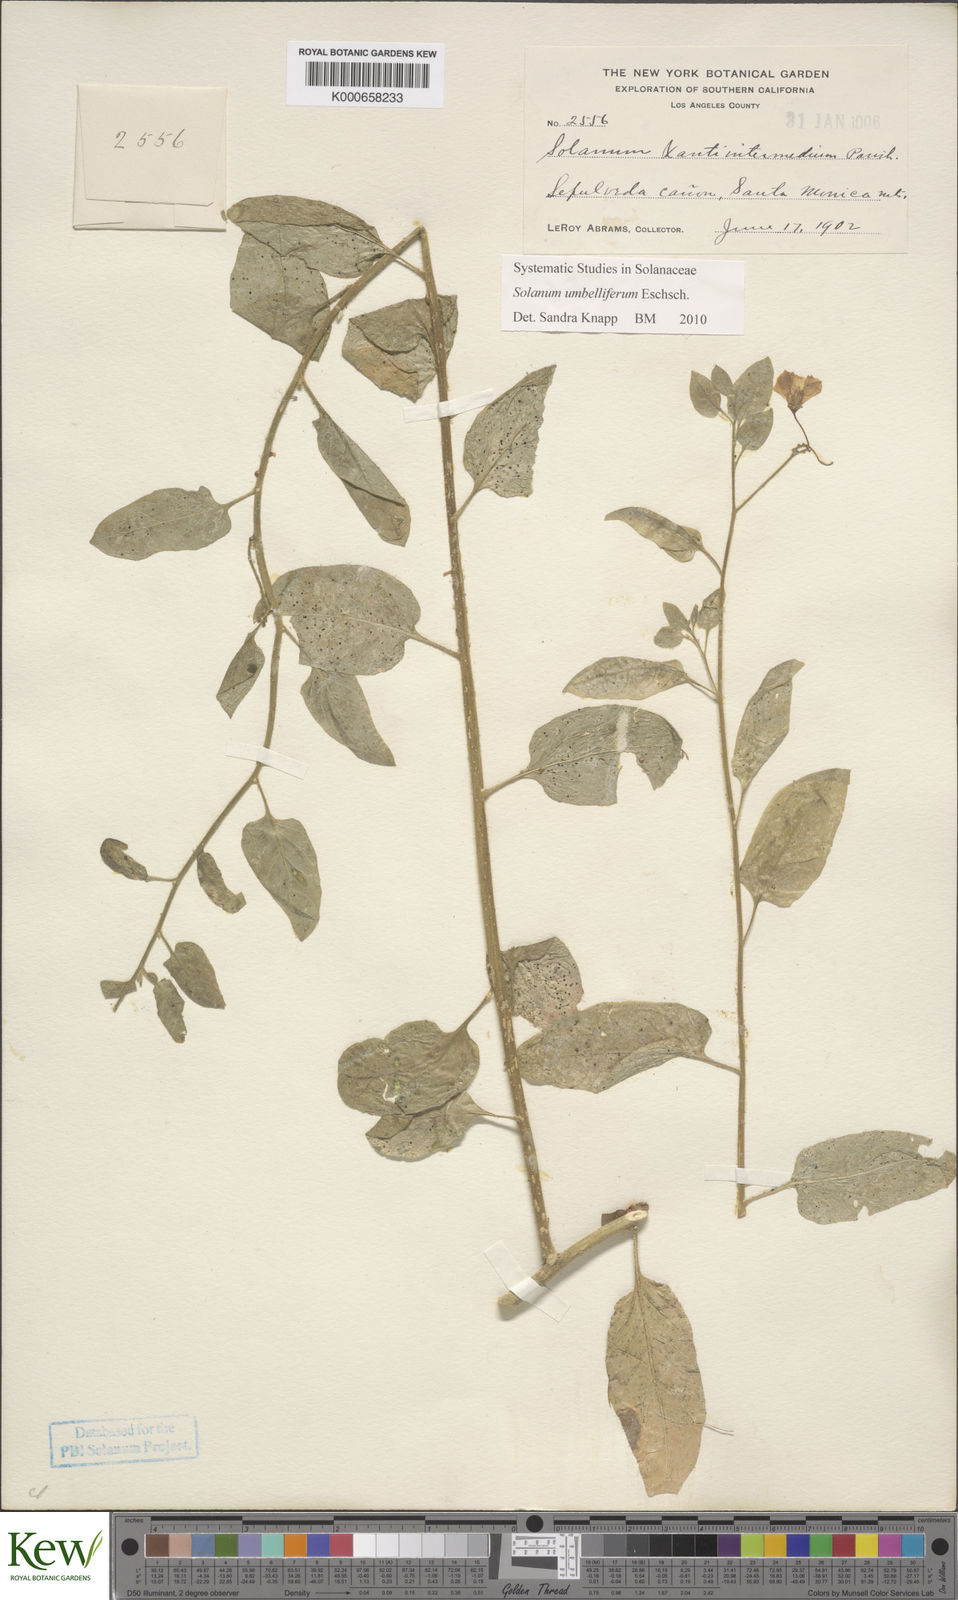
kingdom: Plantae
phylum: Tracheophyta
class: Magnoliopsida
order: Solanales
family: Solanaceae
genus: Solanum
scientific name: Solanum umbelliferum
